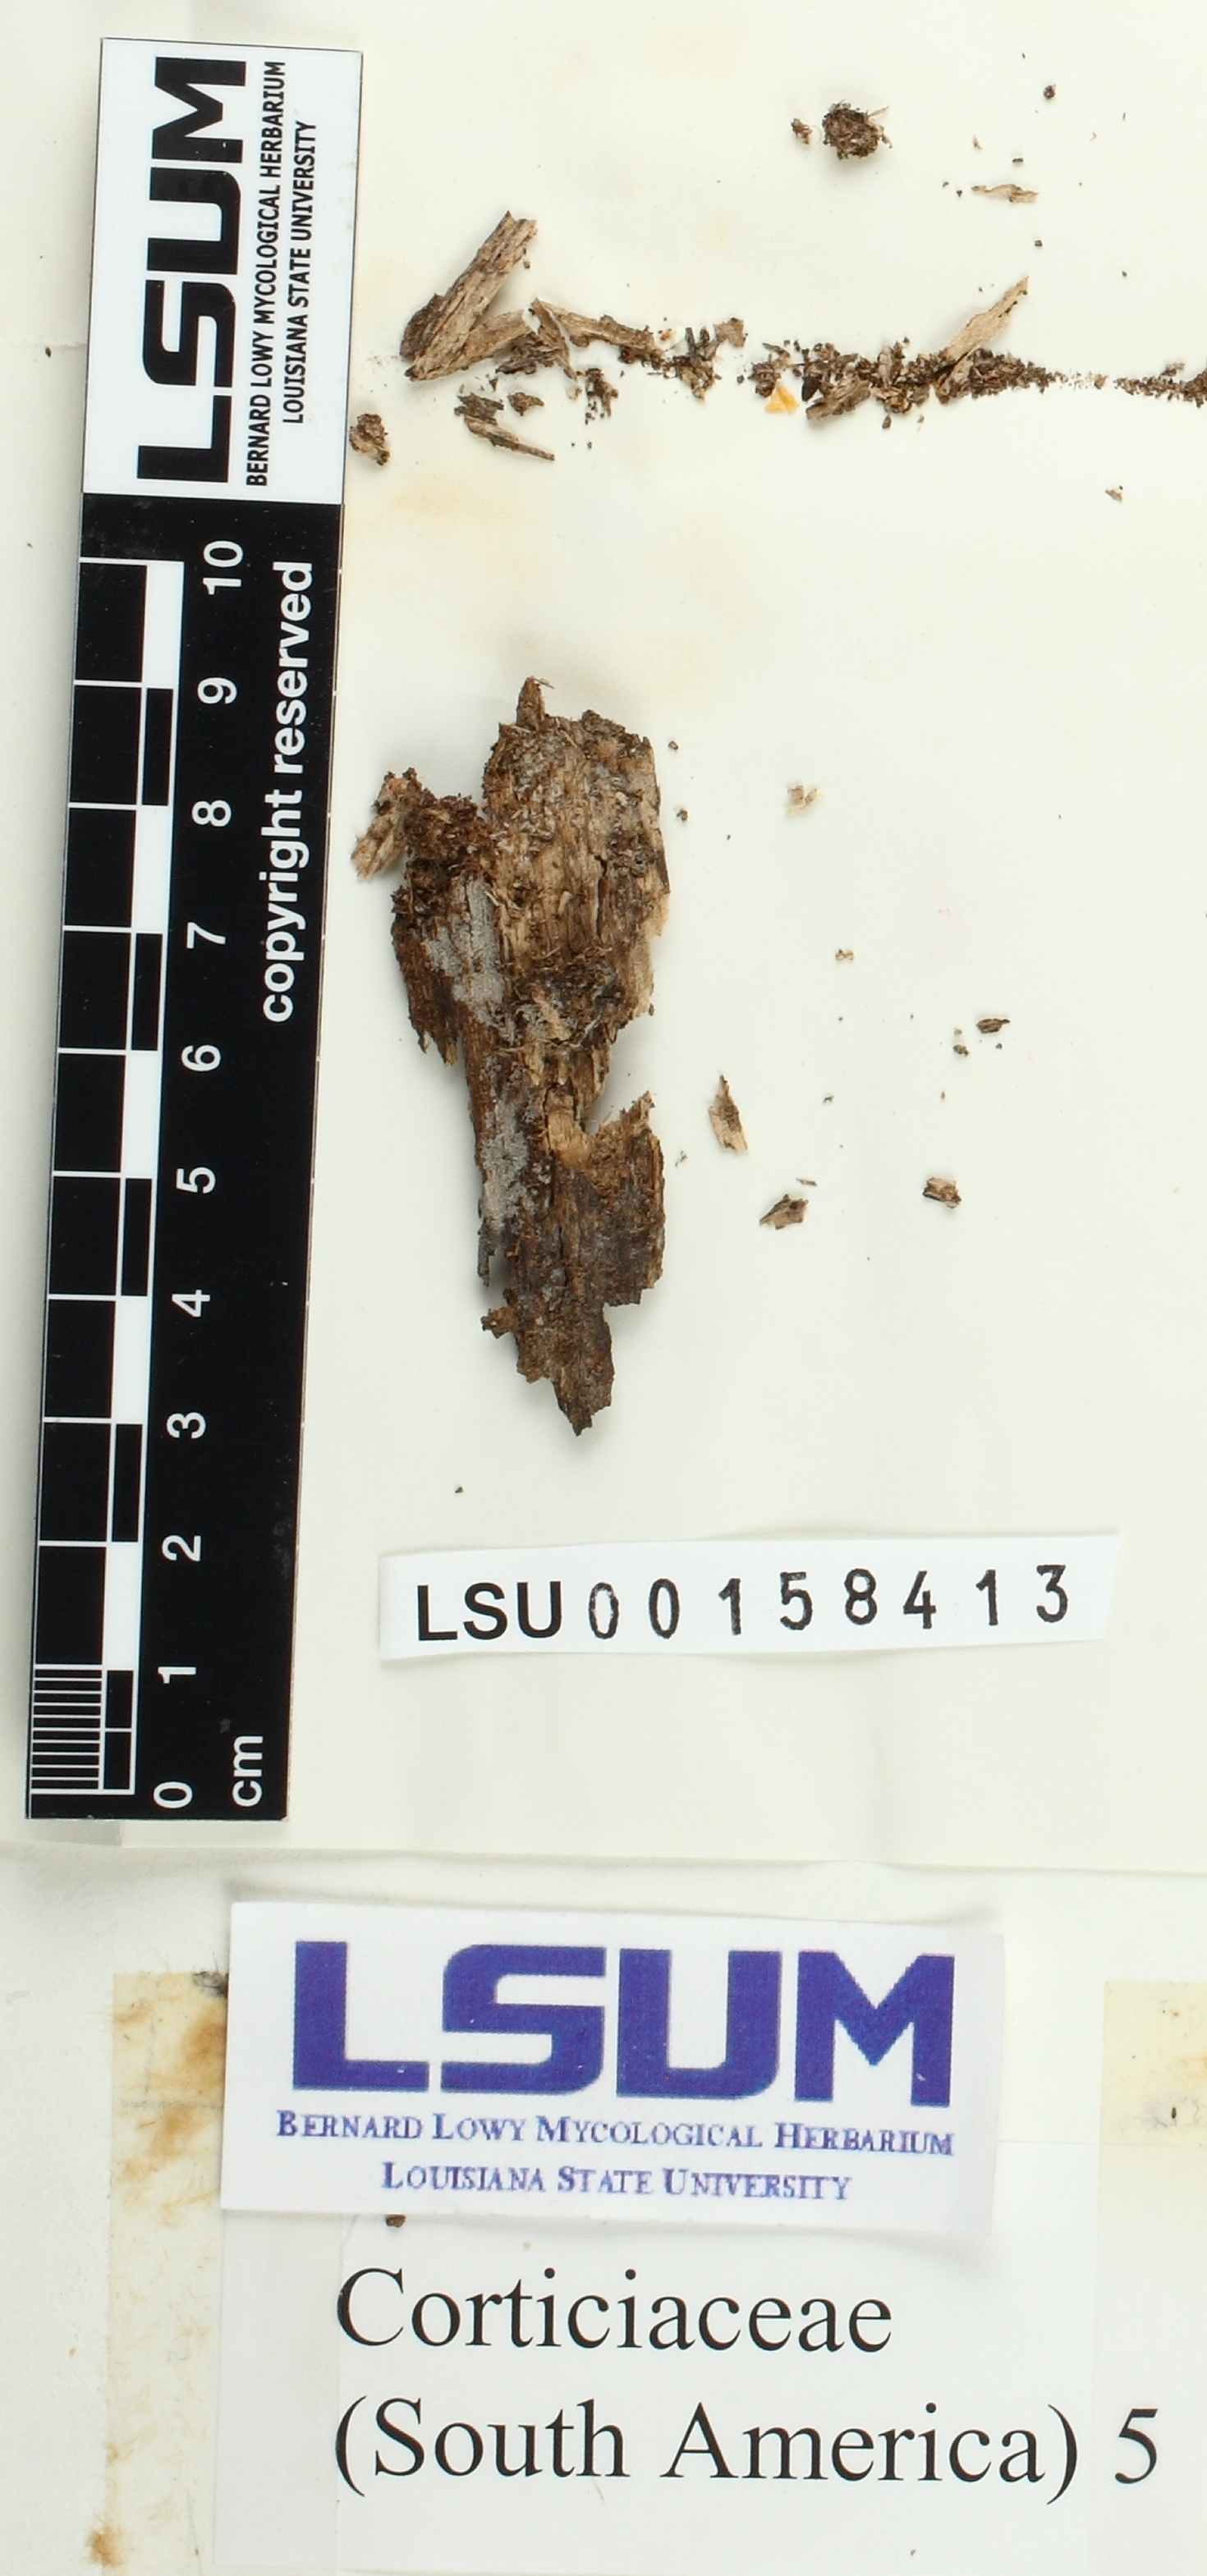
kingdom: Fungi
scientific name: Fungi
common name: Fungi
